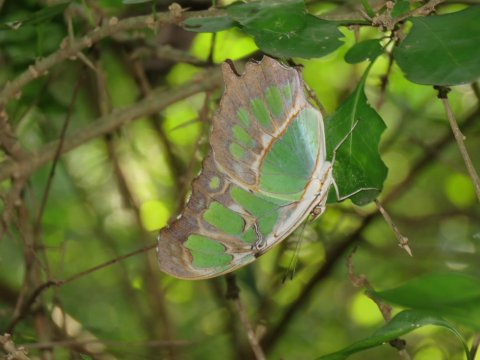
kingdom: Animalia
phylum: Arthropoda
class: Insecta
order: Lepidoptera
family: Nymphalidae
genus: Siproeta
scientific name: Siproeta stelenes
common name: Malachite
